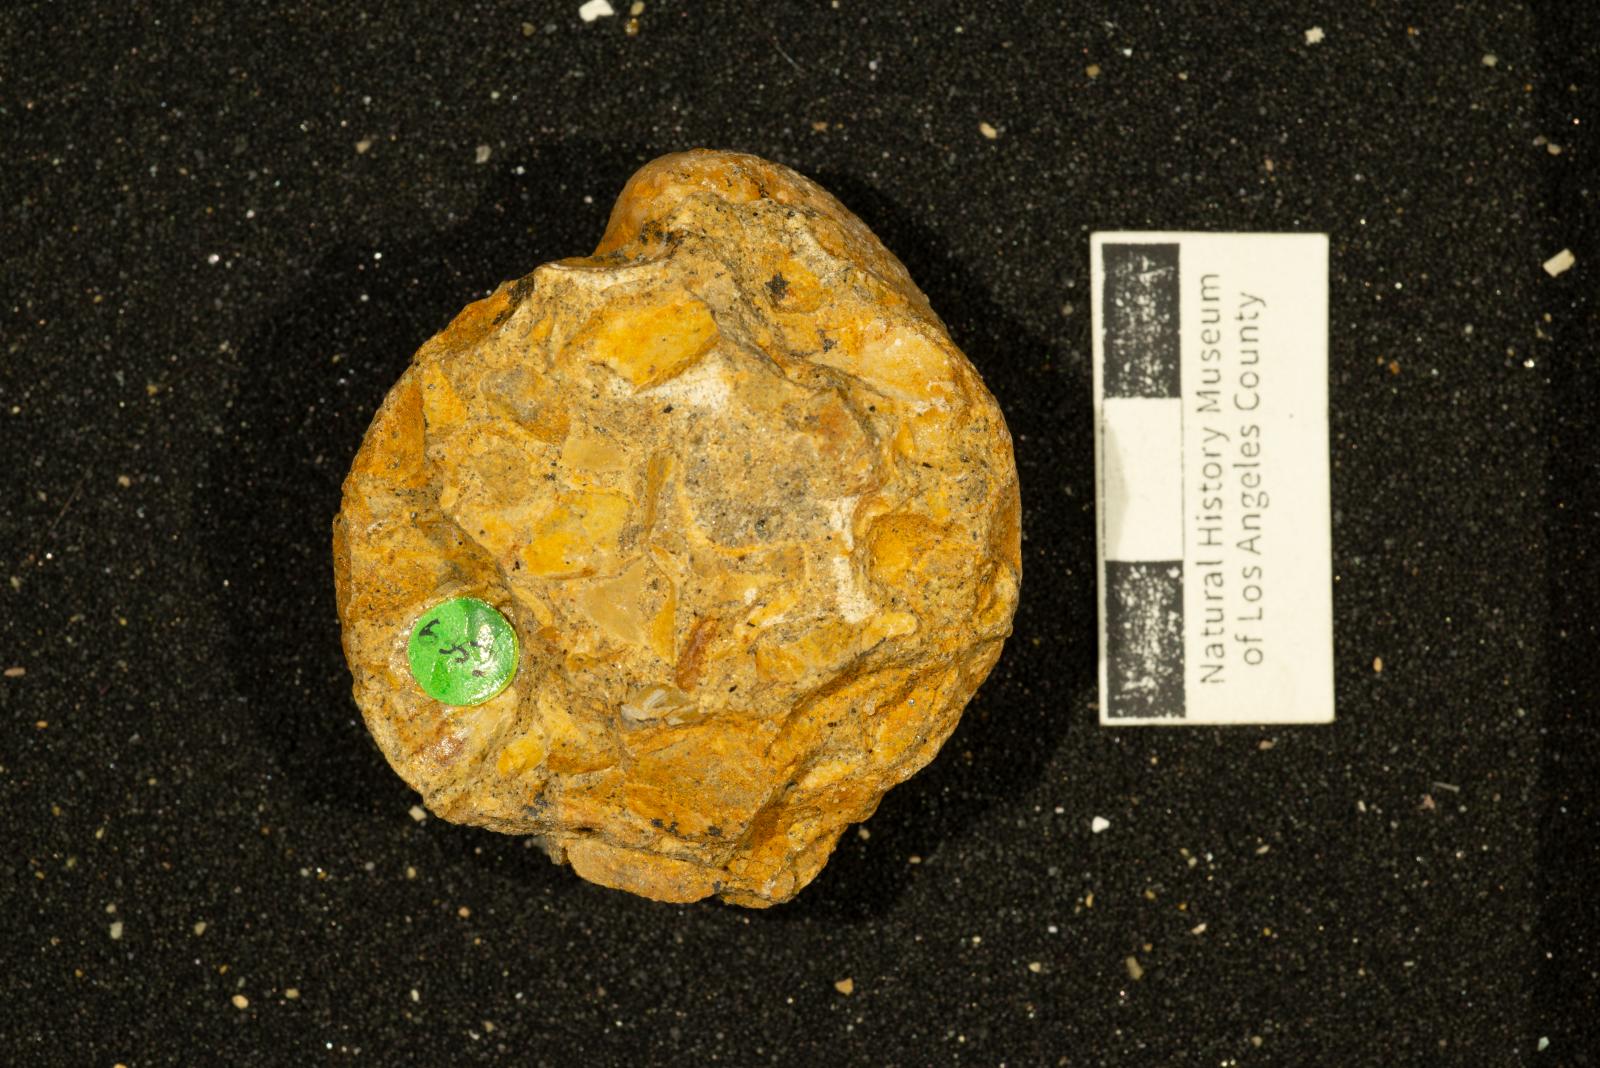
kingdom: Animalia
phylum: Mollusca
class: Bivalvia
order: Adapedonta
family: Edmondiidae
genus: Clisocolus
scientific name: Clisocolus dubius
